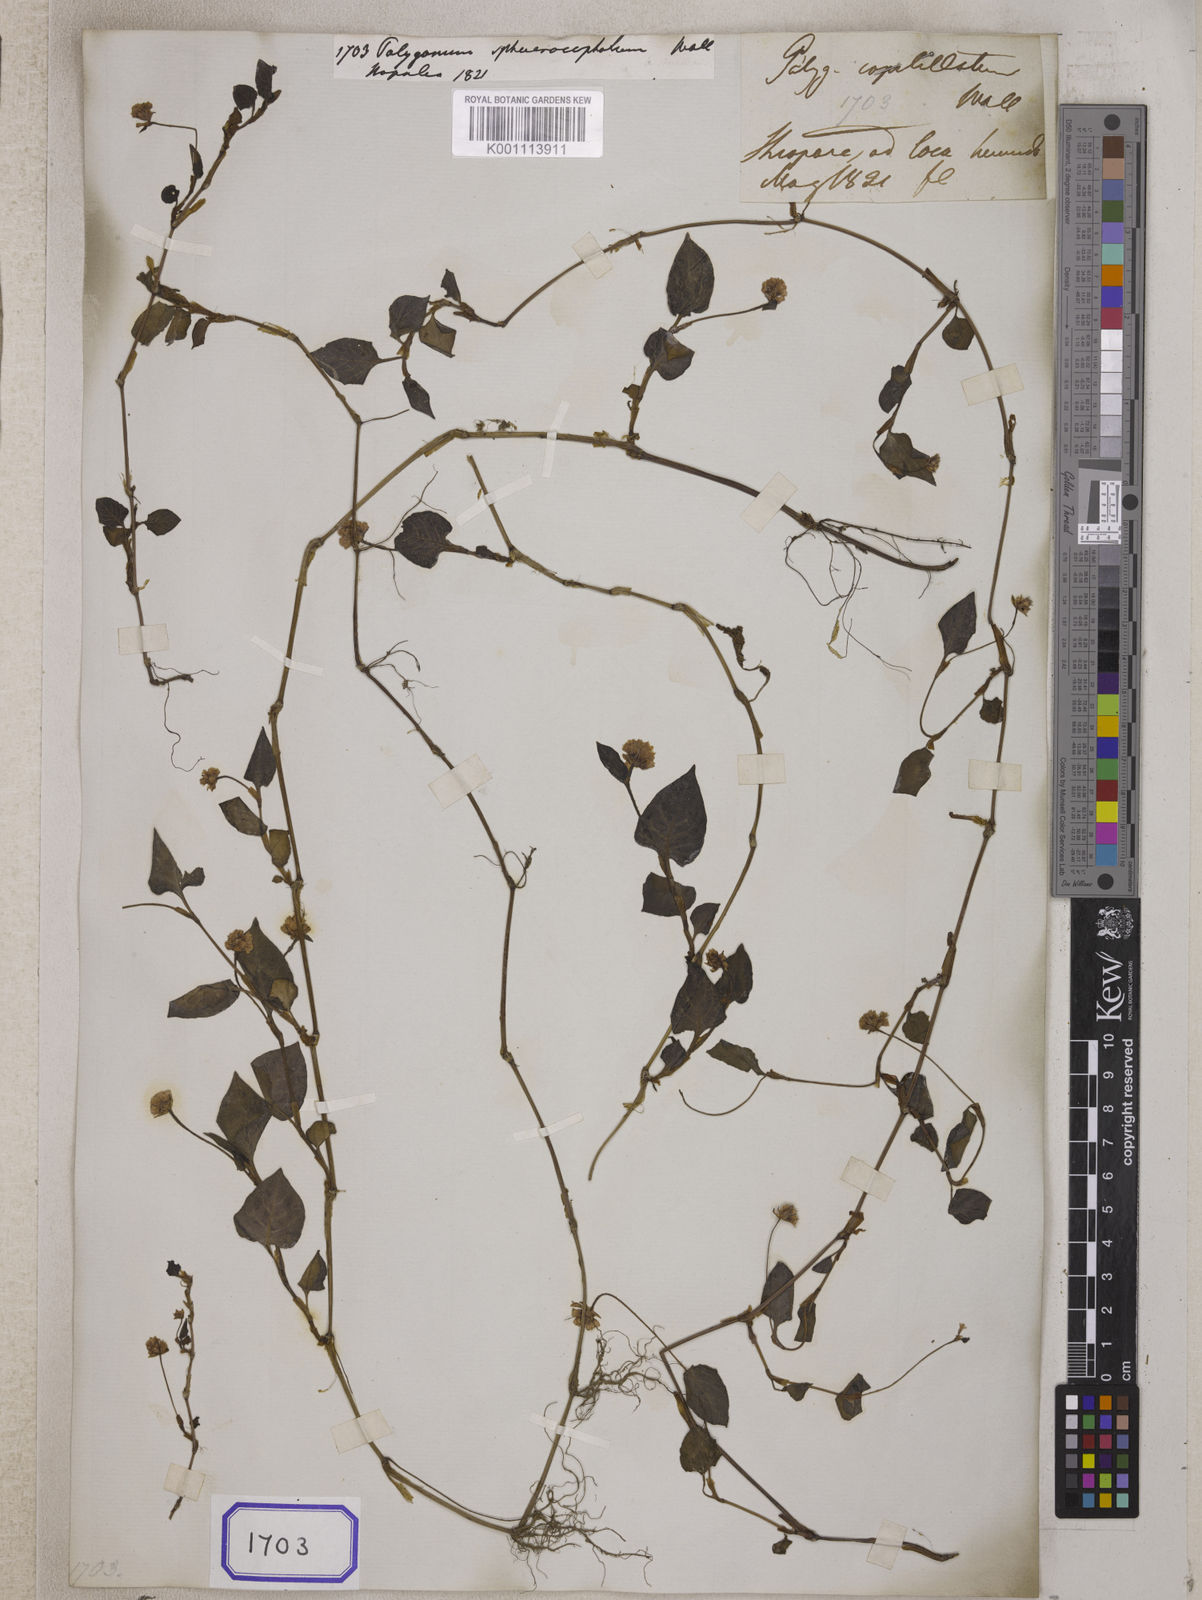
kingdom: Plantae
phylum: Tracheophyta
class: Magnoliopsida
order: Caryophyllales
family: Polygonaceae
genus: Polygonum
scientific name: Polygonum
